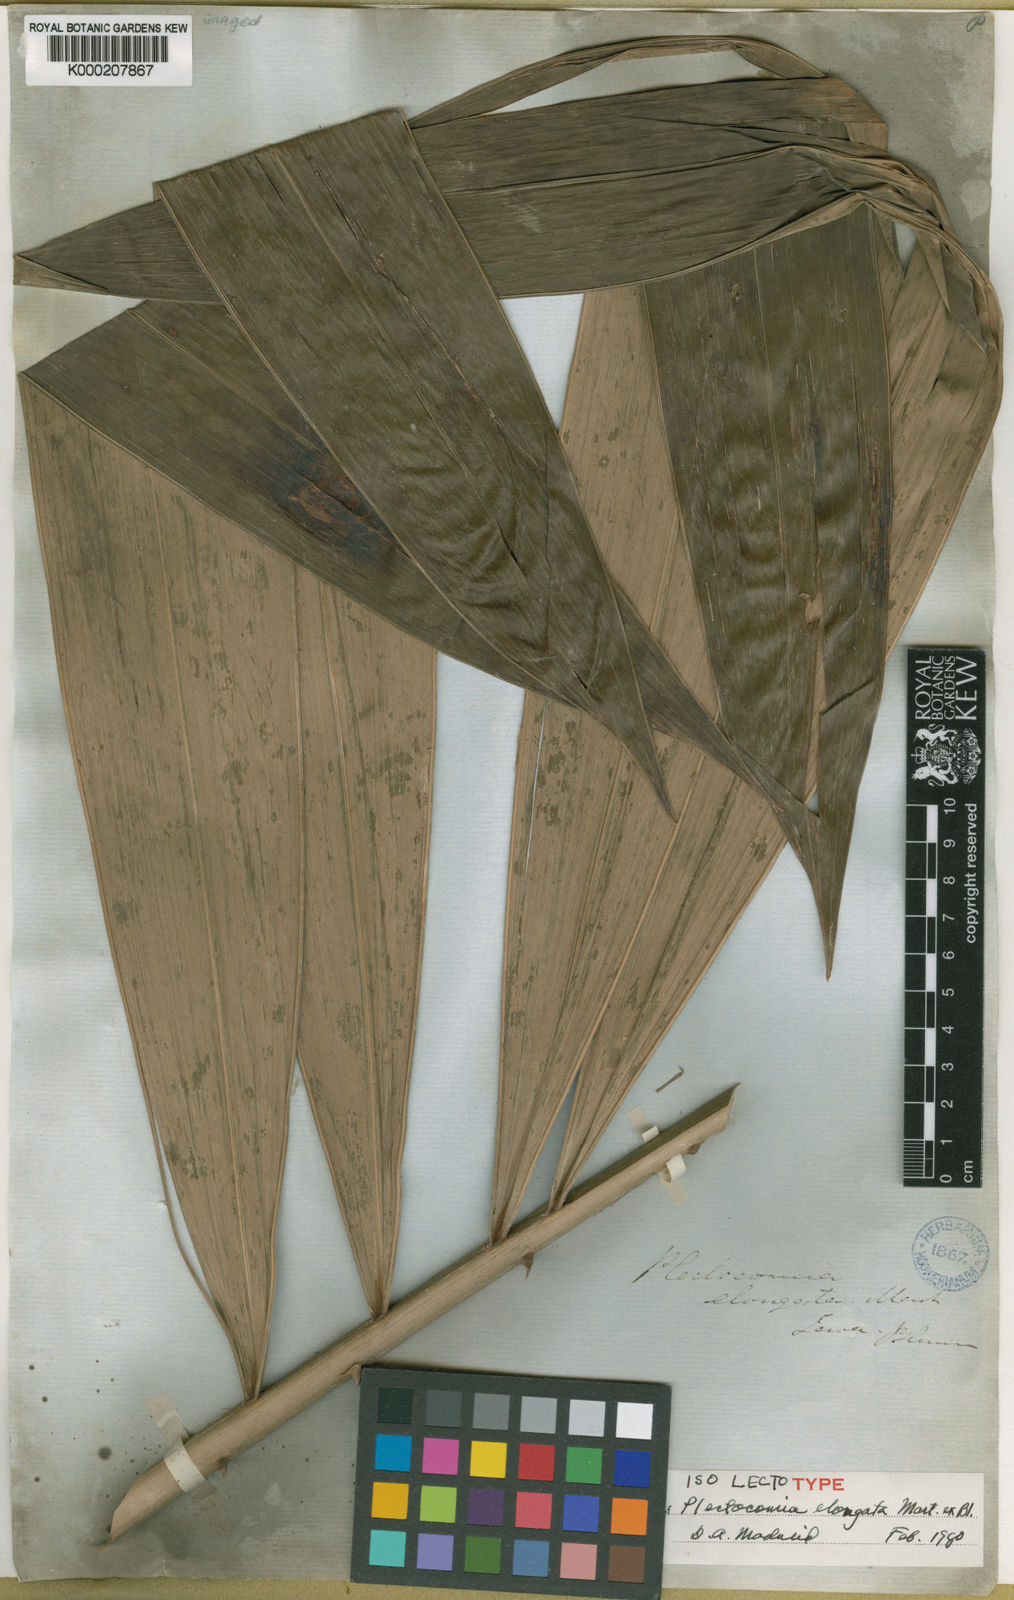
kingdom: Plantae
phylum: Tracheophyta
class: Liliopsida
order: Arecales
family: Arecaceae
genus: Plectocomia
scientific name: Plectocomia elongata
